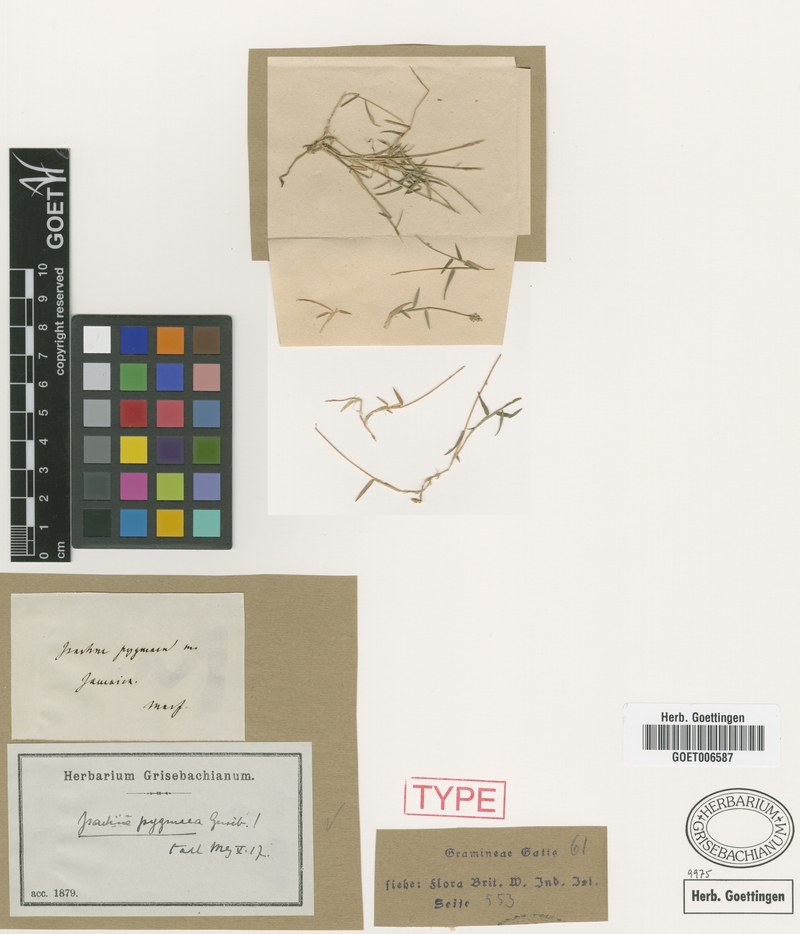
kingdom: Plantae
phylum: Tracheophyta
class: Liliopsida
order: Poales
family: Poaceae
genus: Isachne
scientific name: Isachne pygmaea
